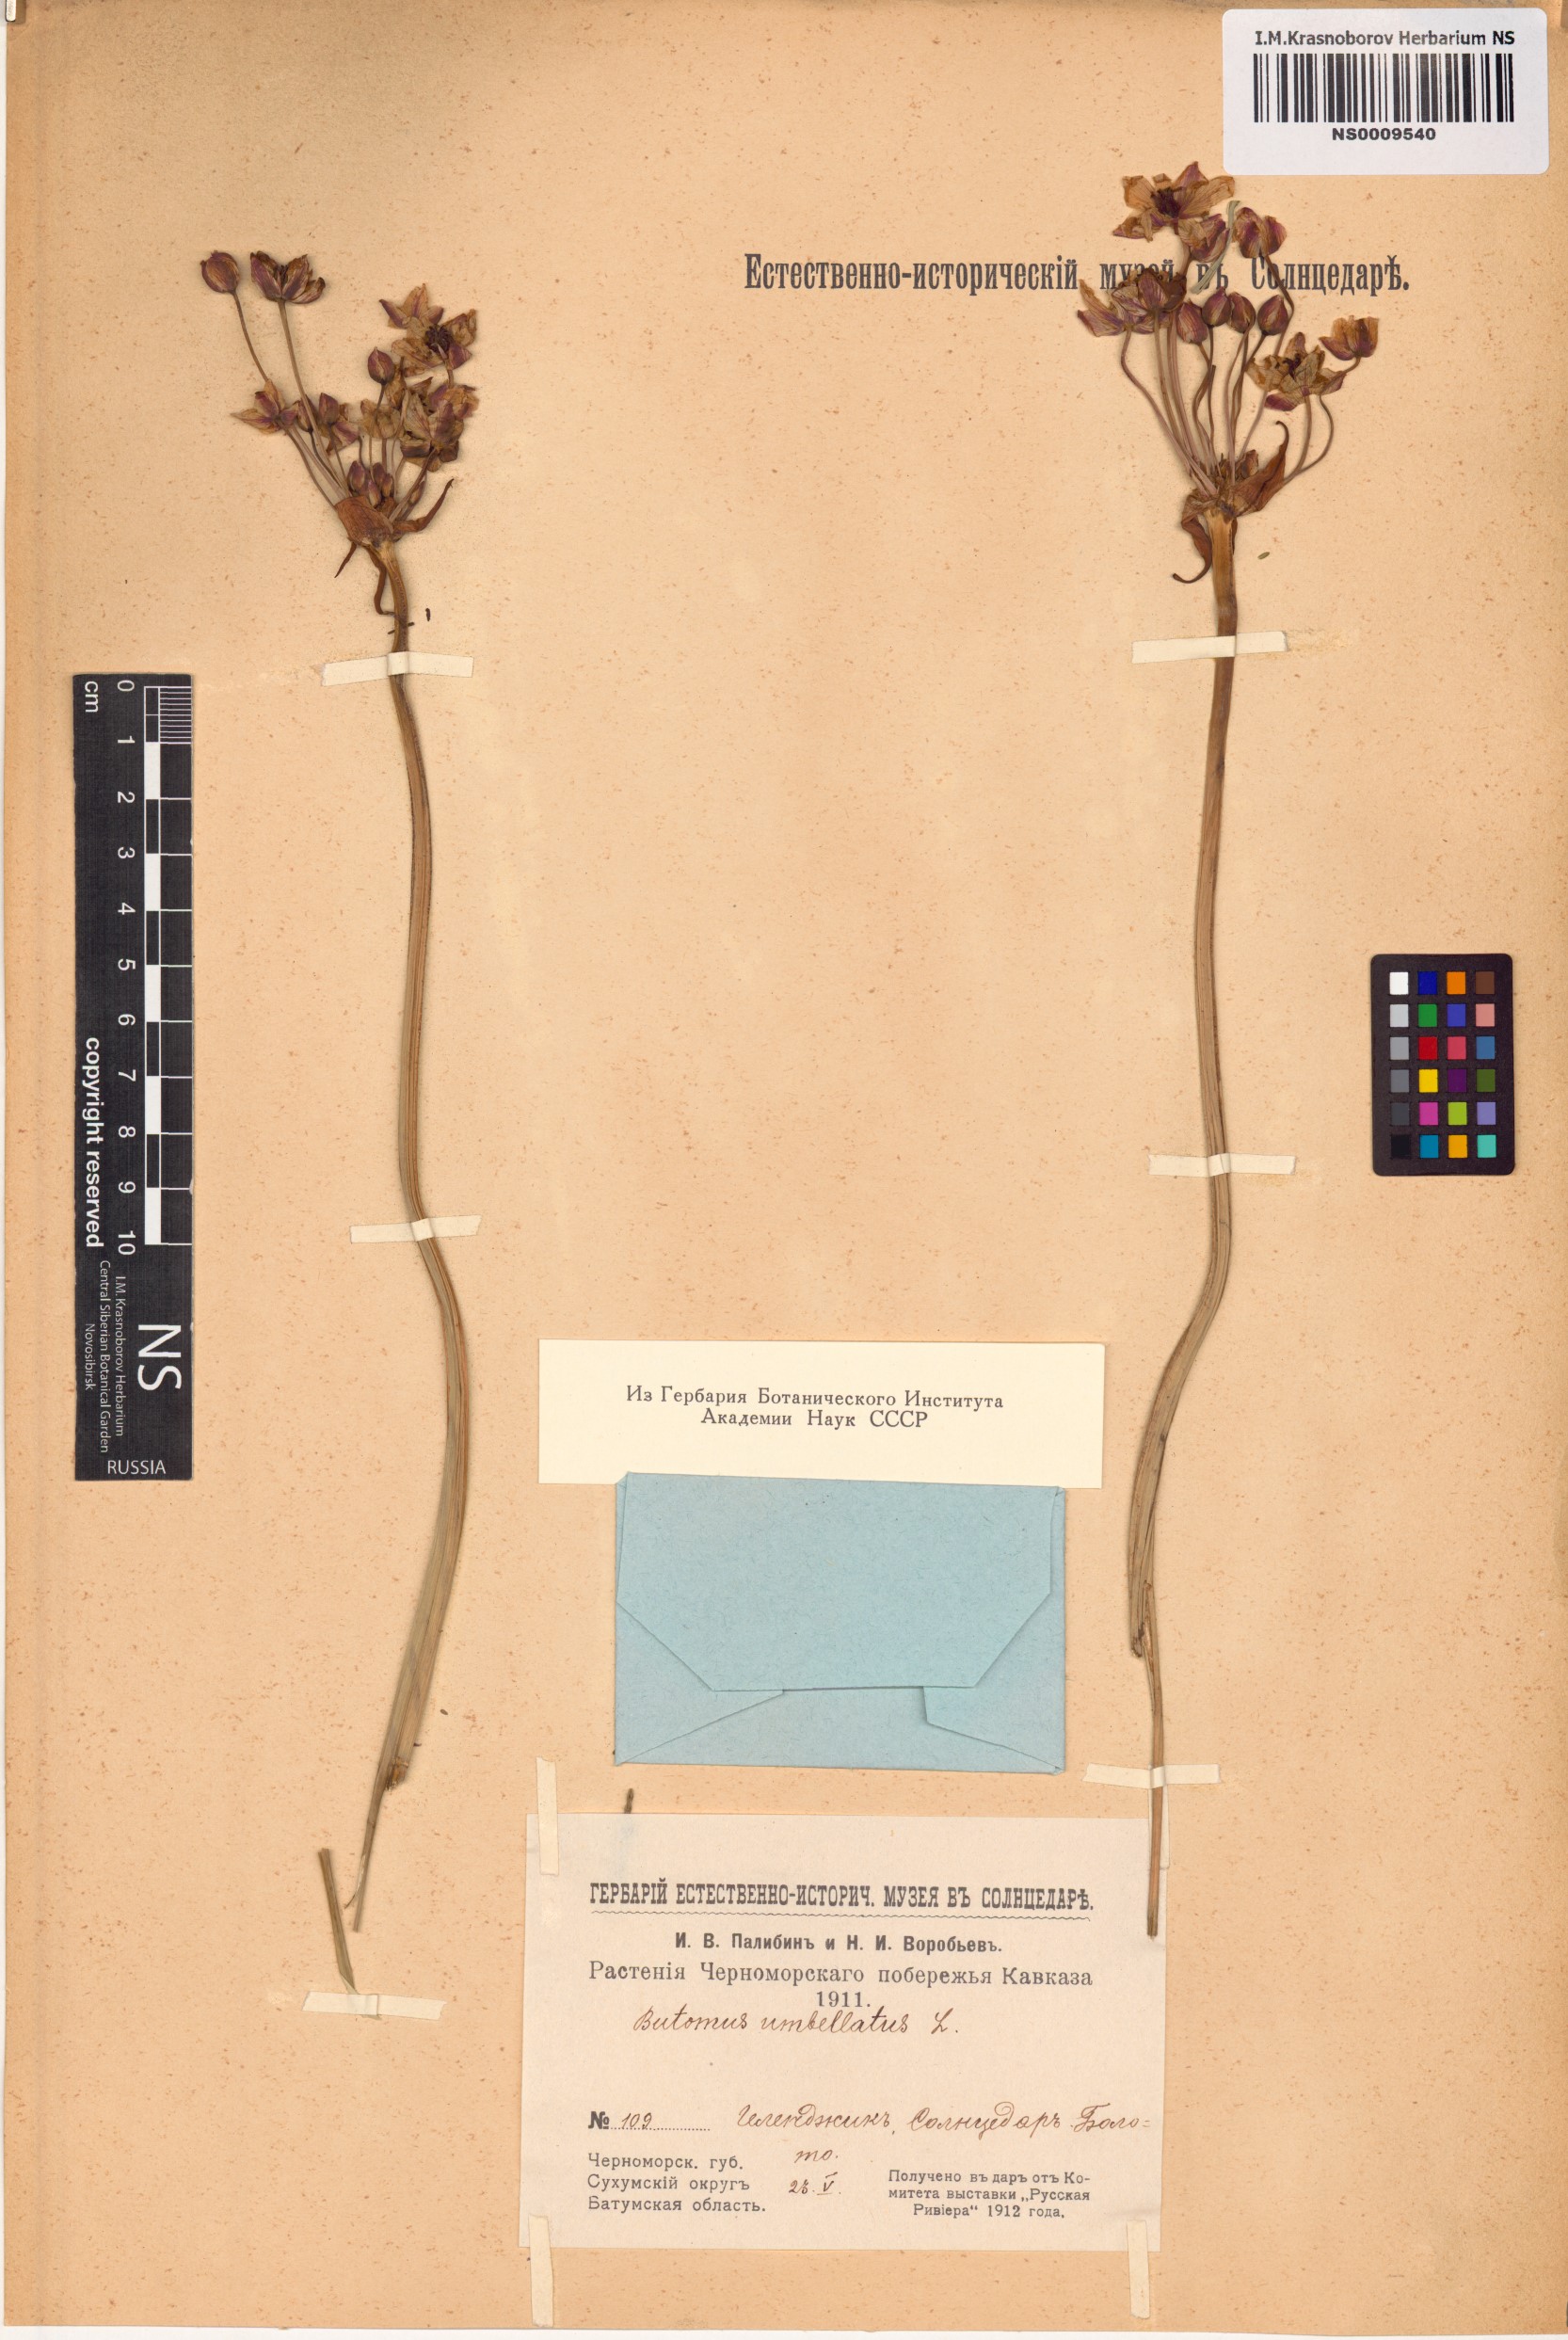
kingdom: Plantae
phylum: Tracheophyta
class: Liliopsida
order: Alismatales
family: Butomaceae
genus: Butomus
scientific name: Butomus umbellatus
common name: Flowering-rush
